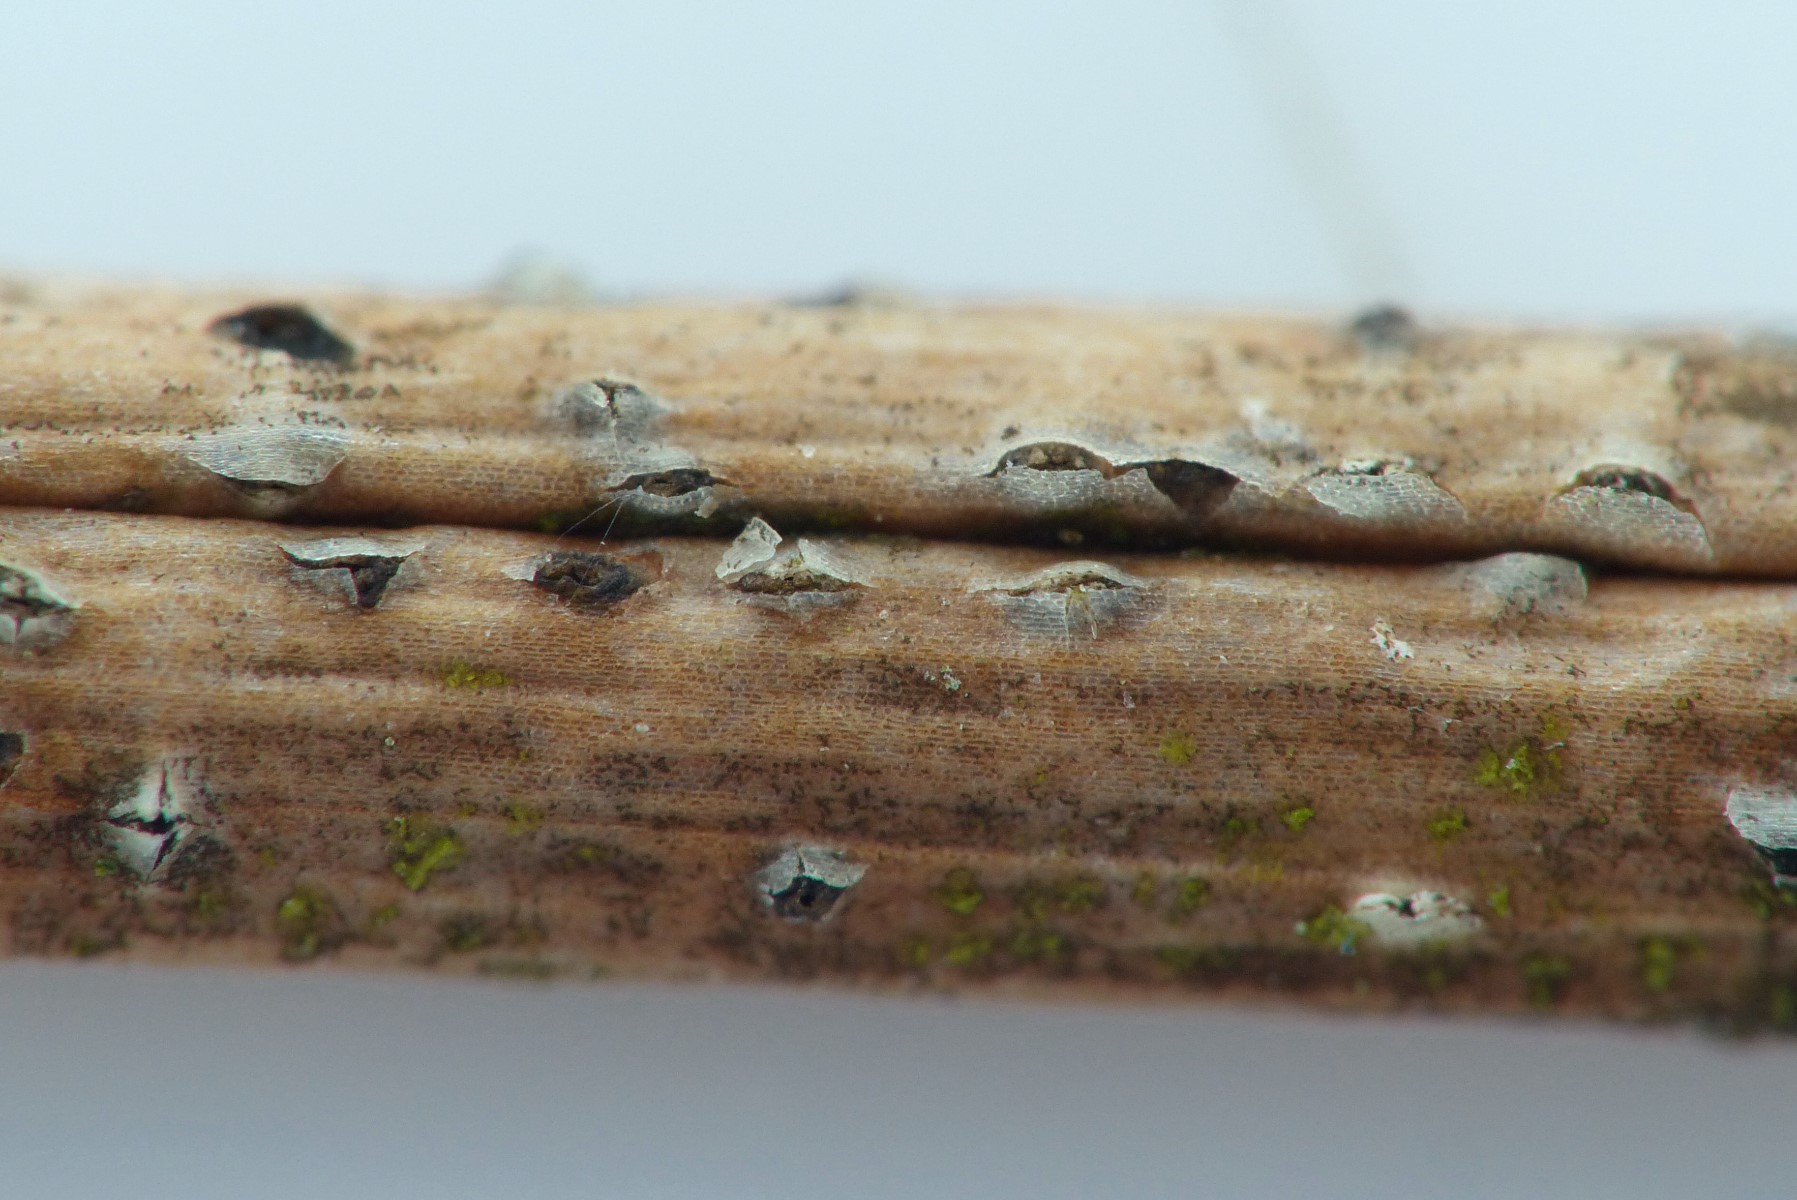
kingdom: Fungi
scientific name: Fungi
